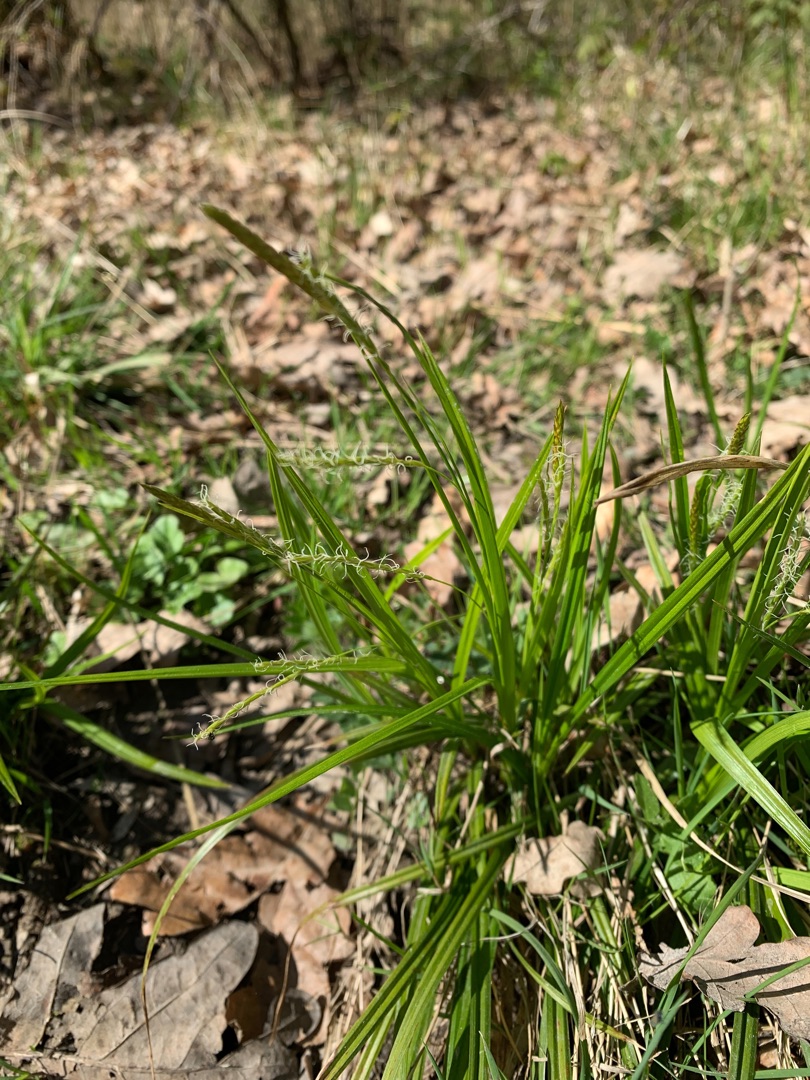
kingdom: Plantae
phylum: Tracheophyta
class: Liliopsida
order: Poales
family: Cyperaceae
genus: Carex
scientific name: Carex sylvatica
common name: Skov-star
